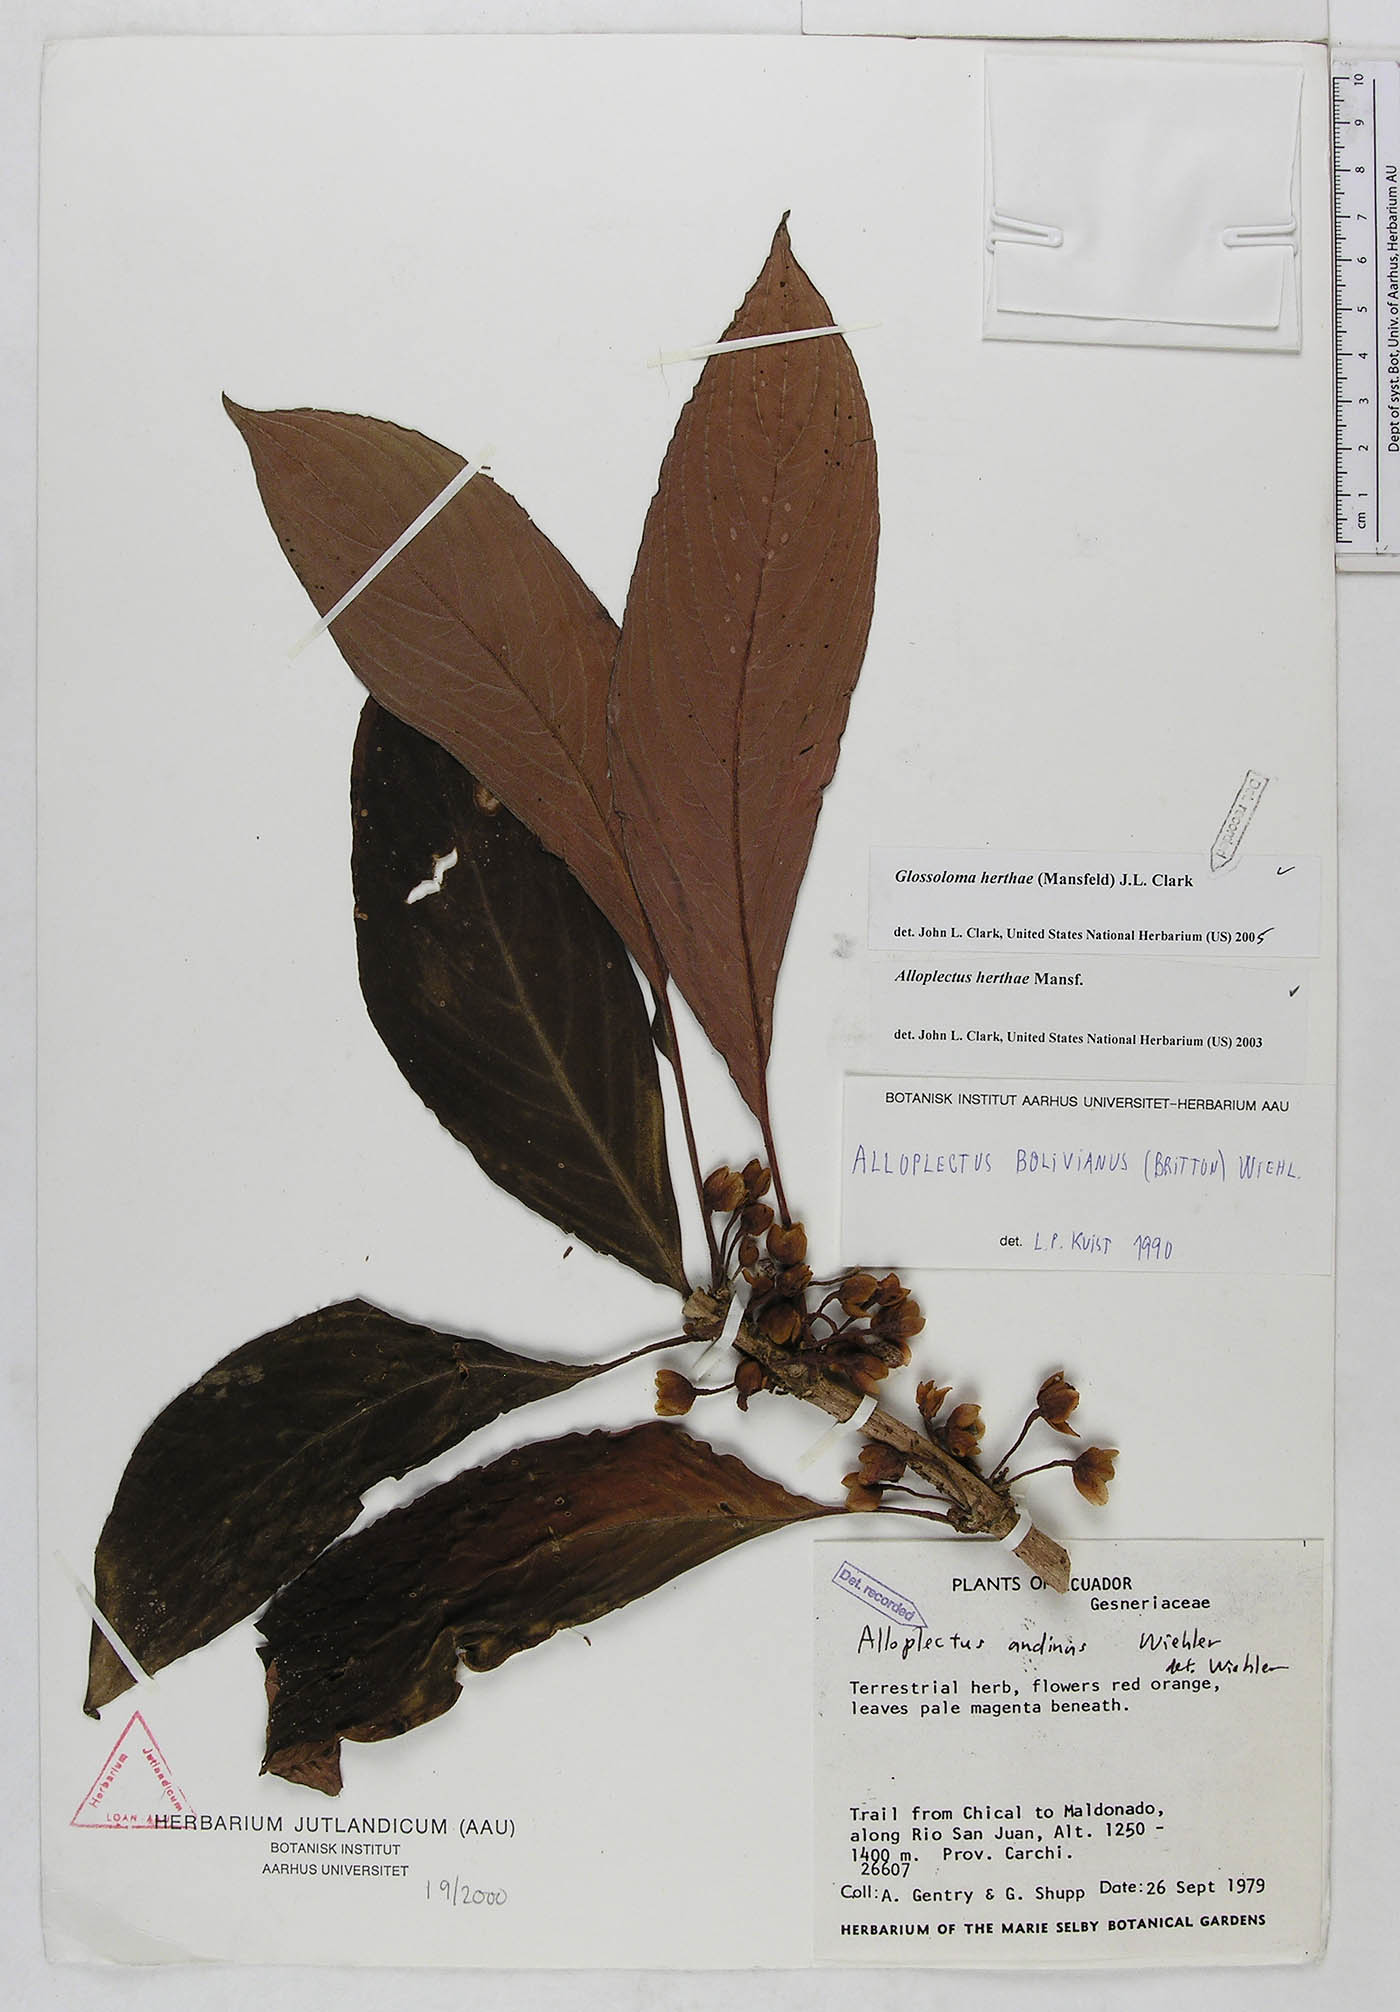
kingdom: Plantae
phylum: Tracheophyta
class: Magnoliopsida
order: Lamiales
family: Gesneriaceae
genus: Glossoloma
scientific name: Glossoloma herthae
